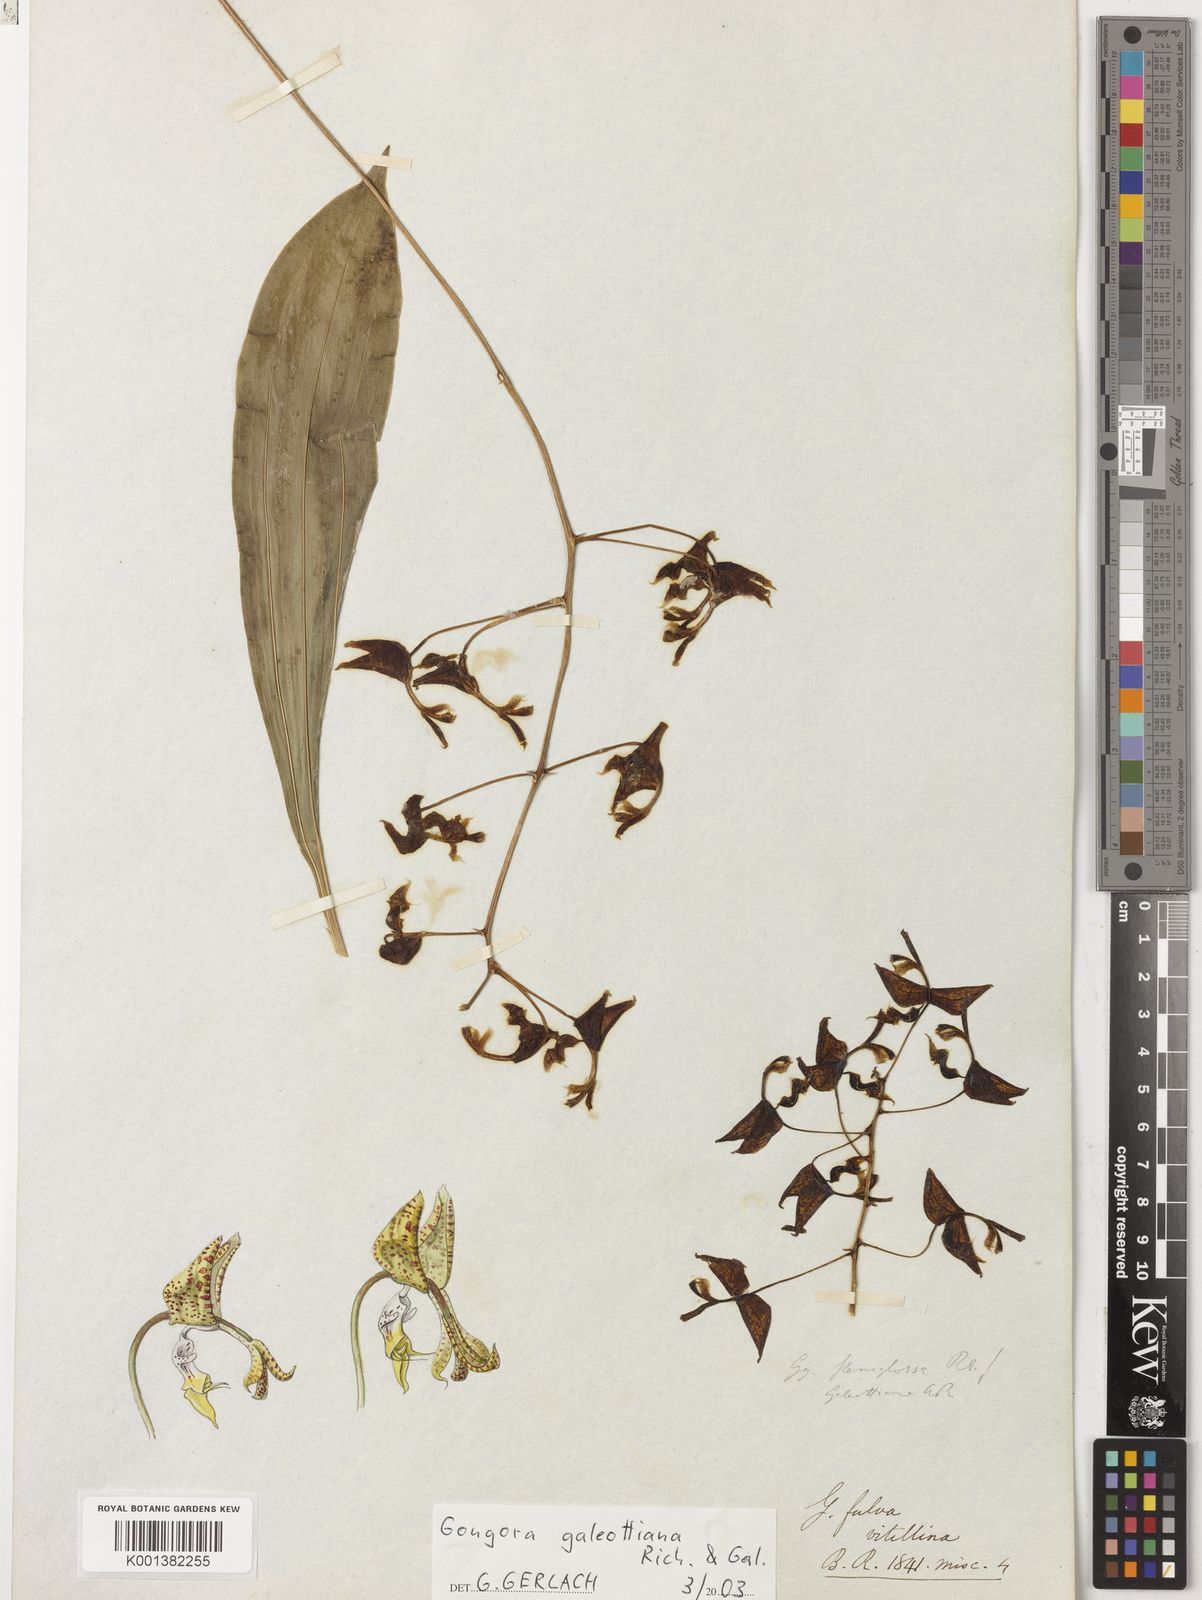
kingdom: Plantae
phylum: Tracheophyta
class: Liliopsida
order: Asparagales
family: Orchidaceae
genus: Gongora
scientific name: Gongora galeottiana
